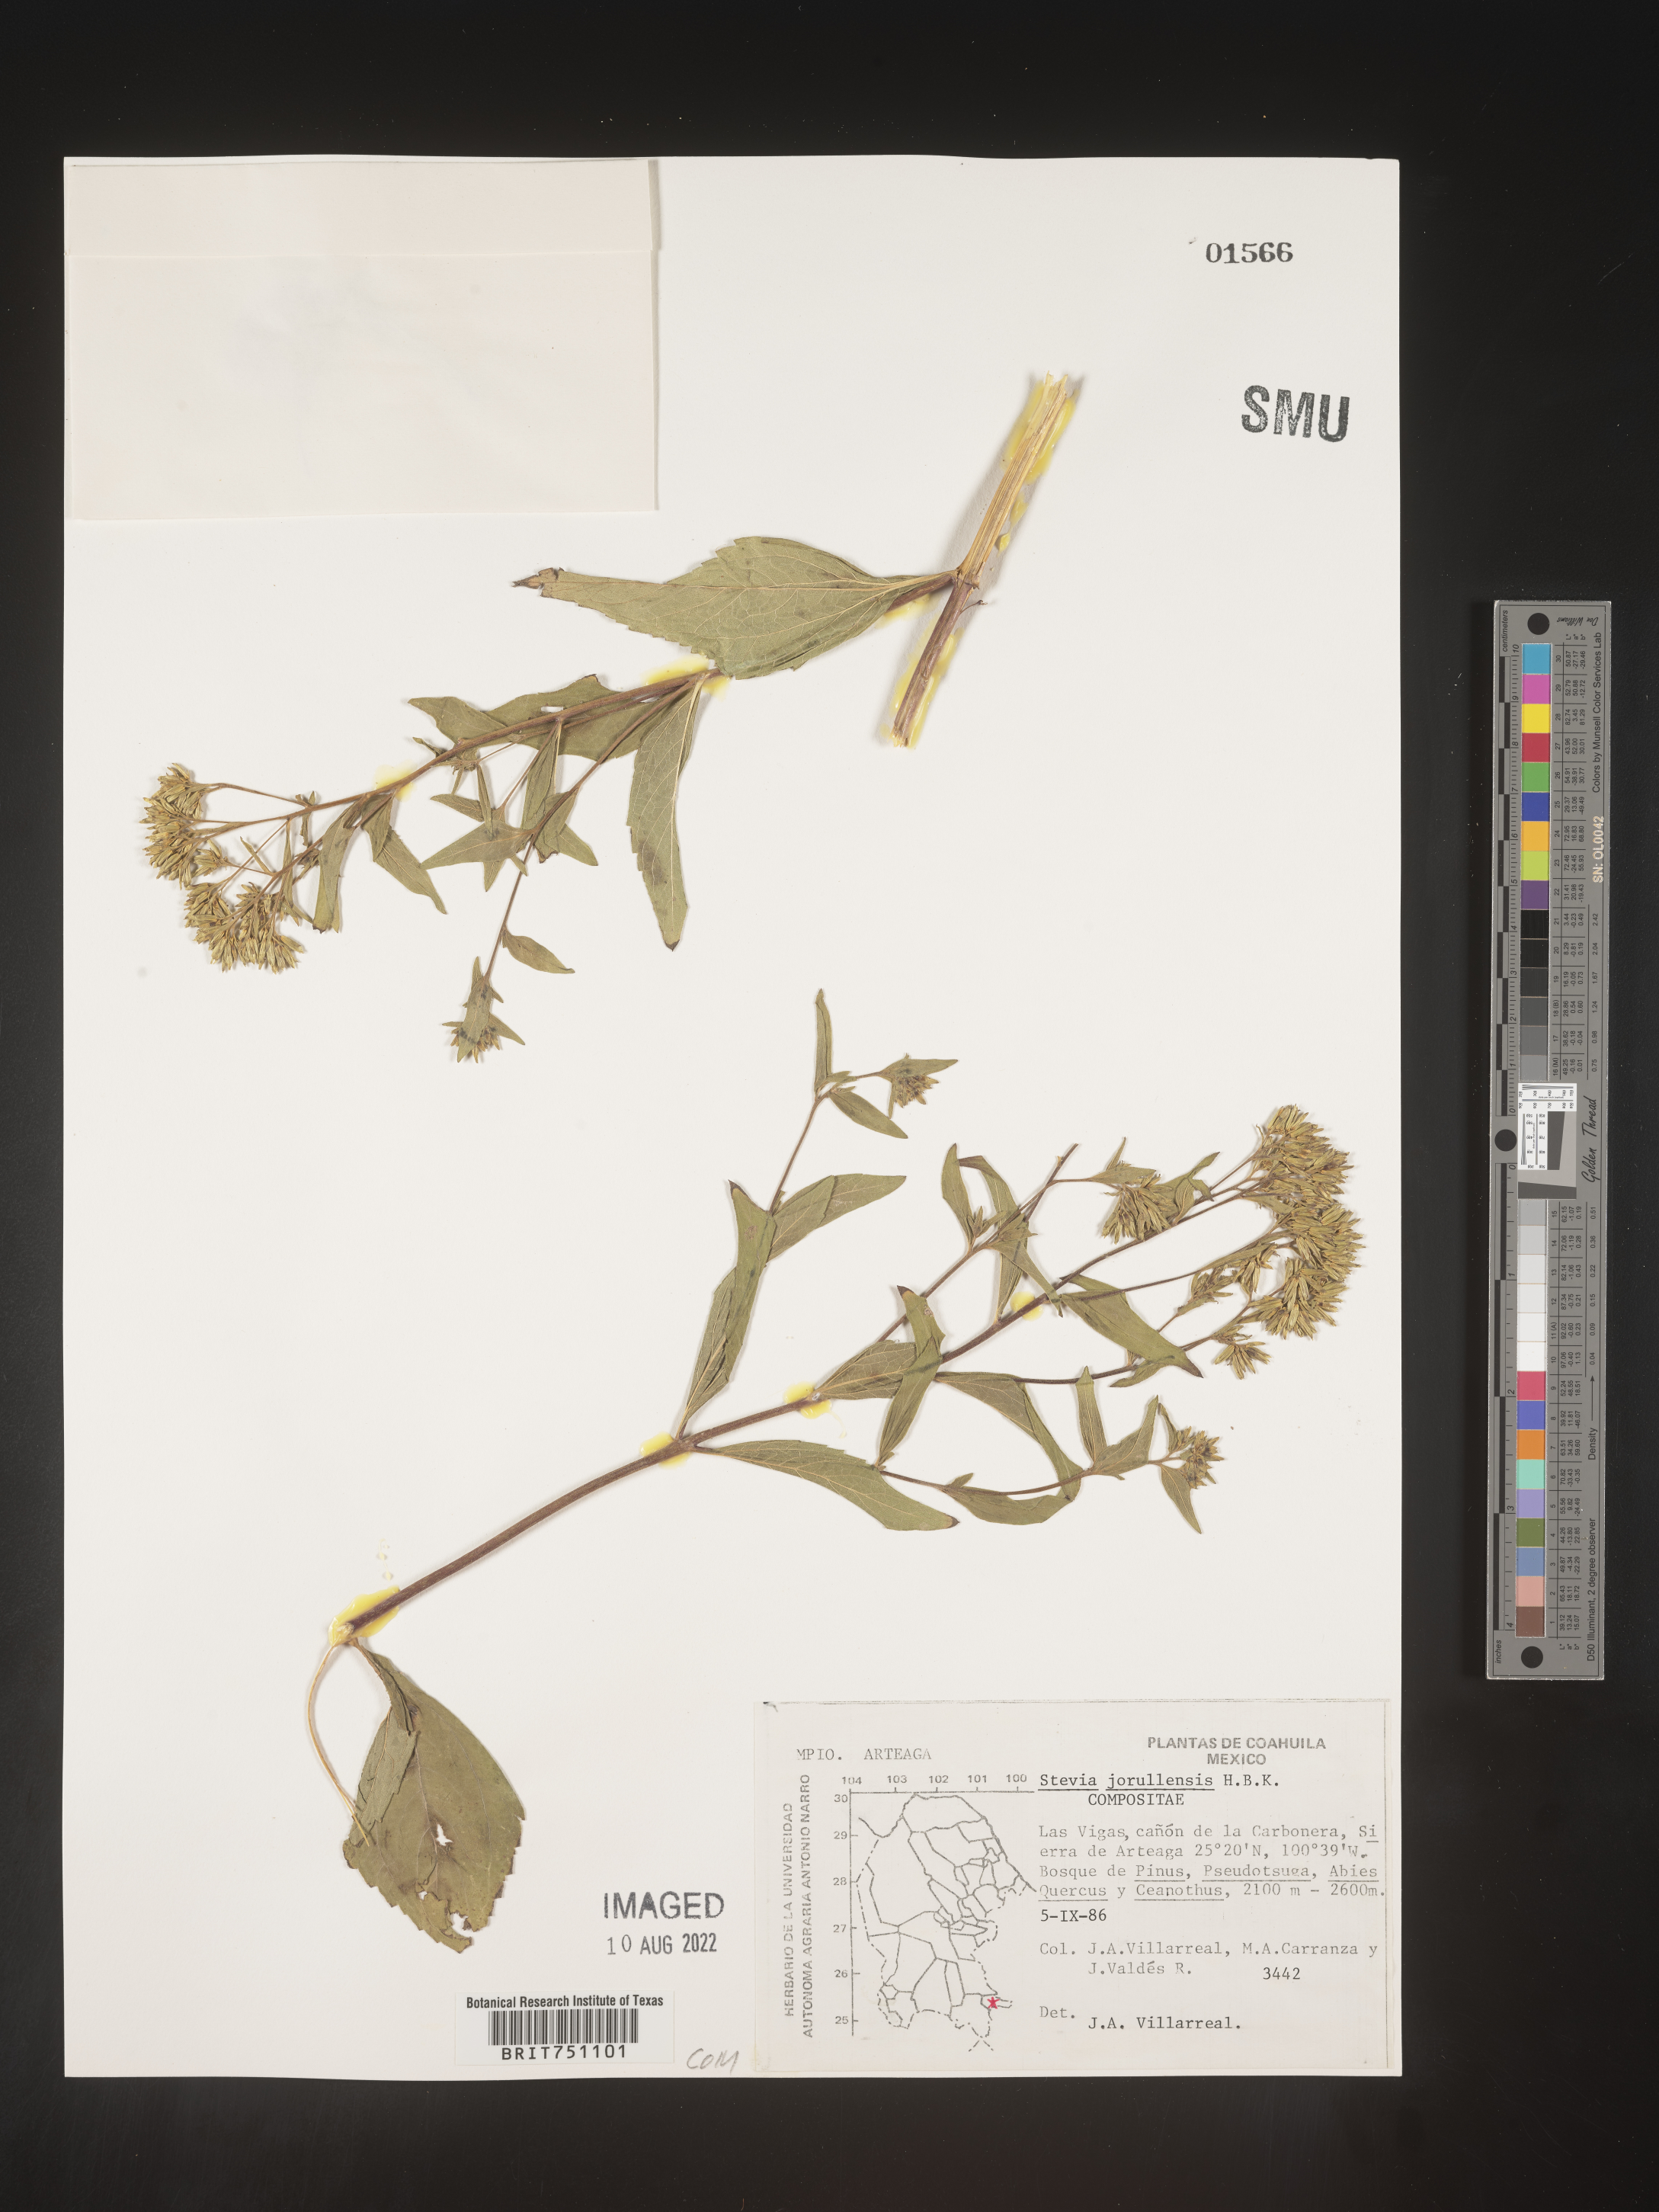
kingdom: Plantae
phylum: Tracheophyta
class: Magnoliopsida
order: Asterales
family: Asteraceae
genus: Stevia
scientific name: Stevia jorullensis
